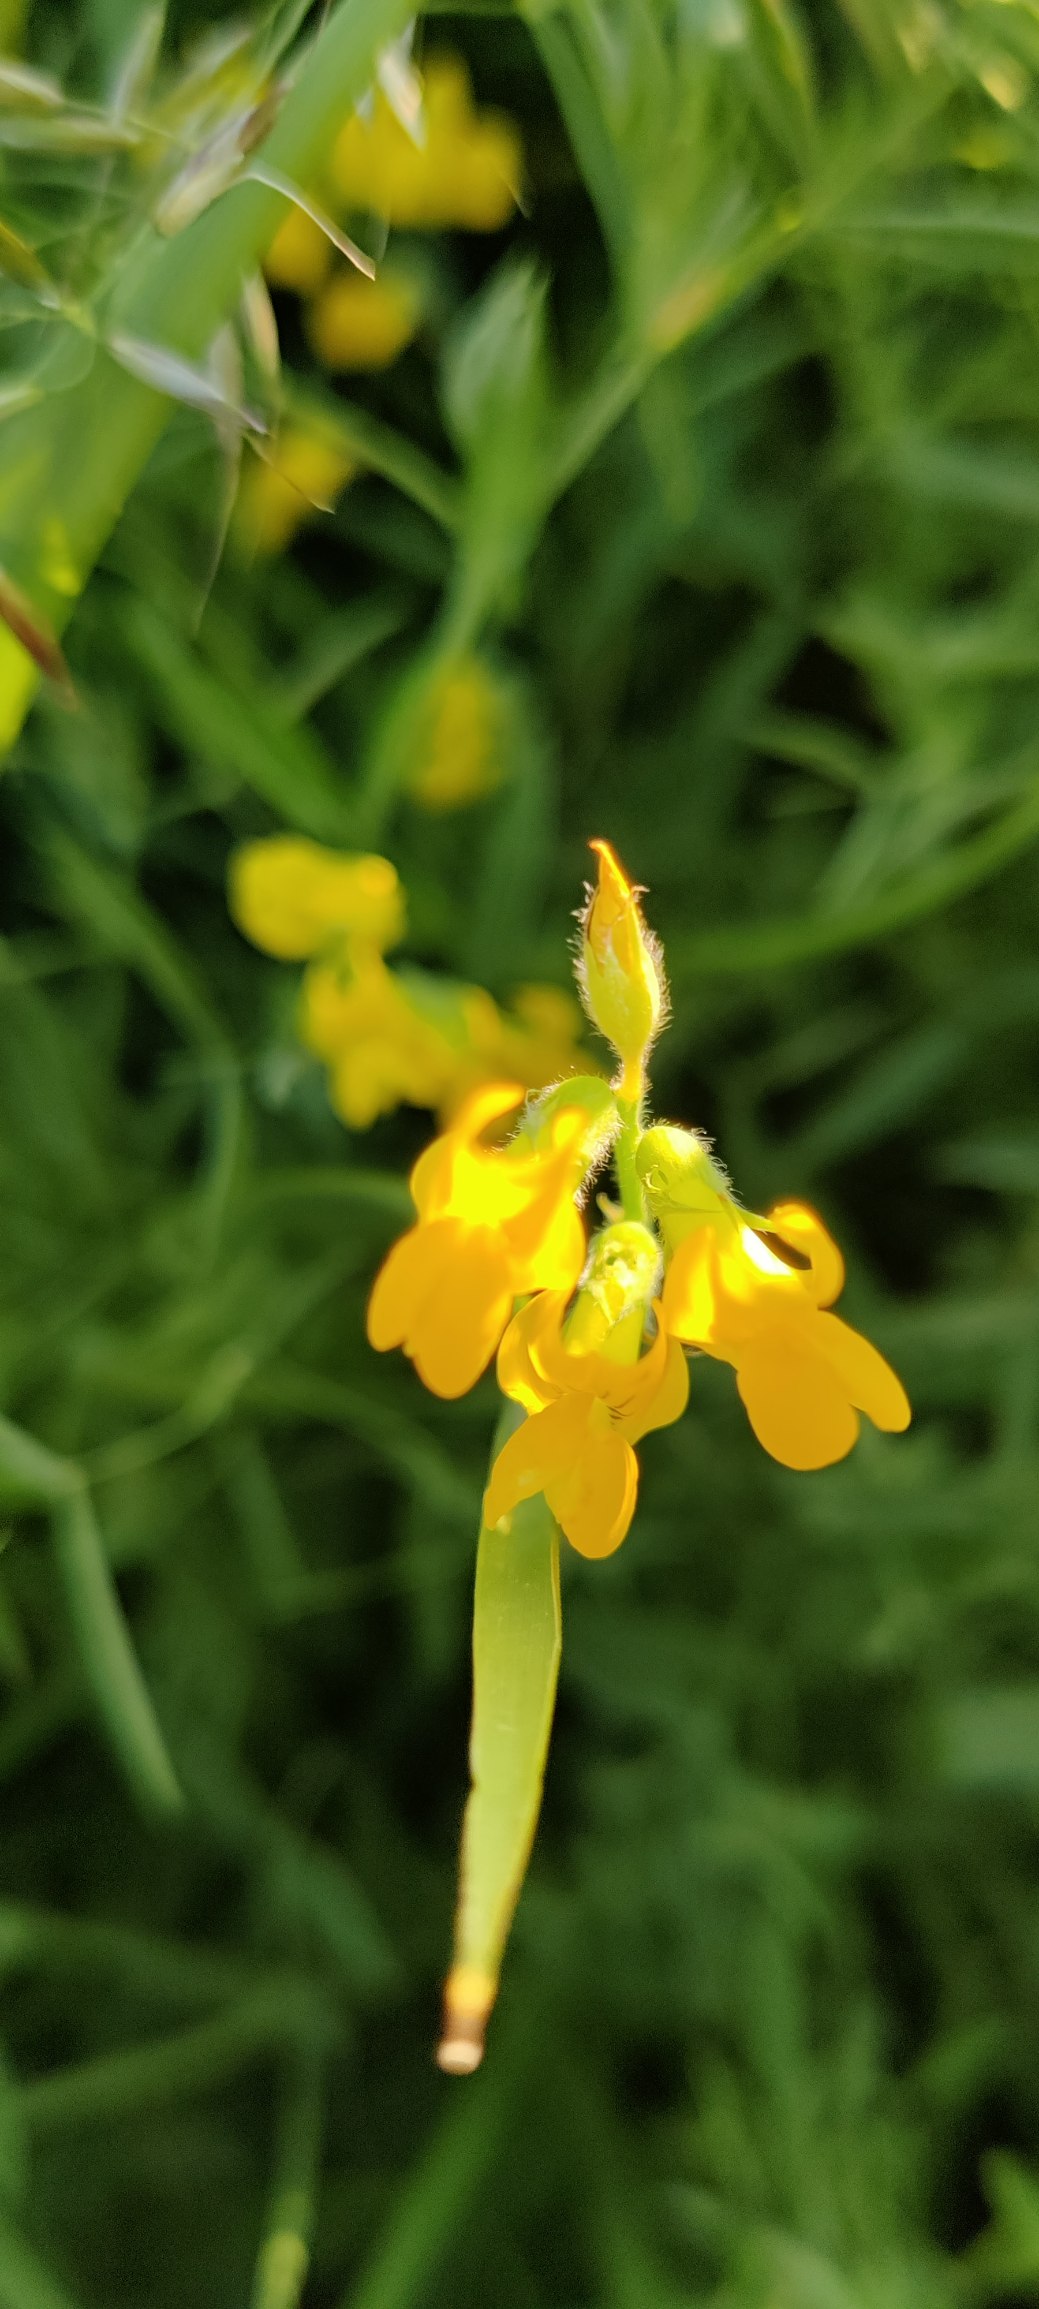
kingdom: Plantae
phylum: Tracheophyta
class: Magnoliopsida
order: Fabales
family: Fabaceae
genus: Lathyrus
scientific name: Lathyrus pratensis
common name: Gul fladbælg
